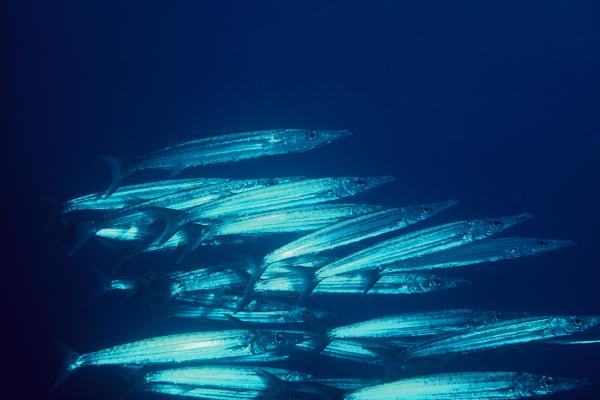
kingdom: Animalia
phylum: Chordata
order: Perciformes
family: Sphyraenidae
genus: Sphyraena
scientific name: Sphyraena helleri
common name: Heller's barracuda
